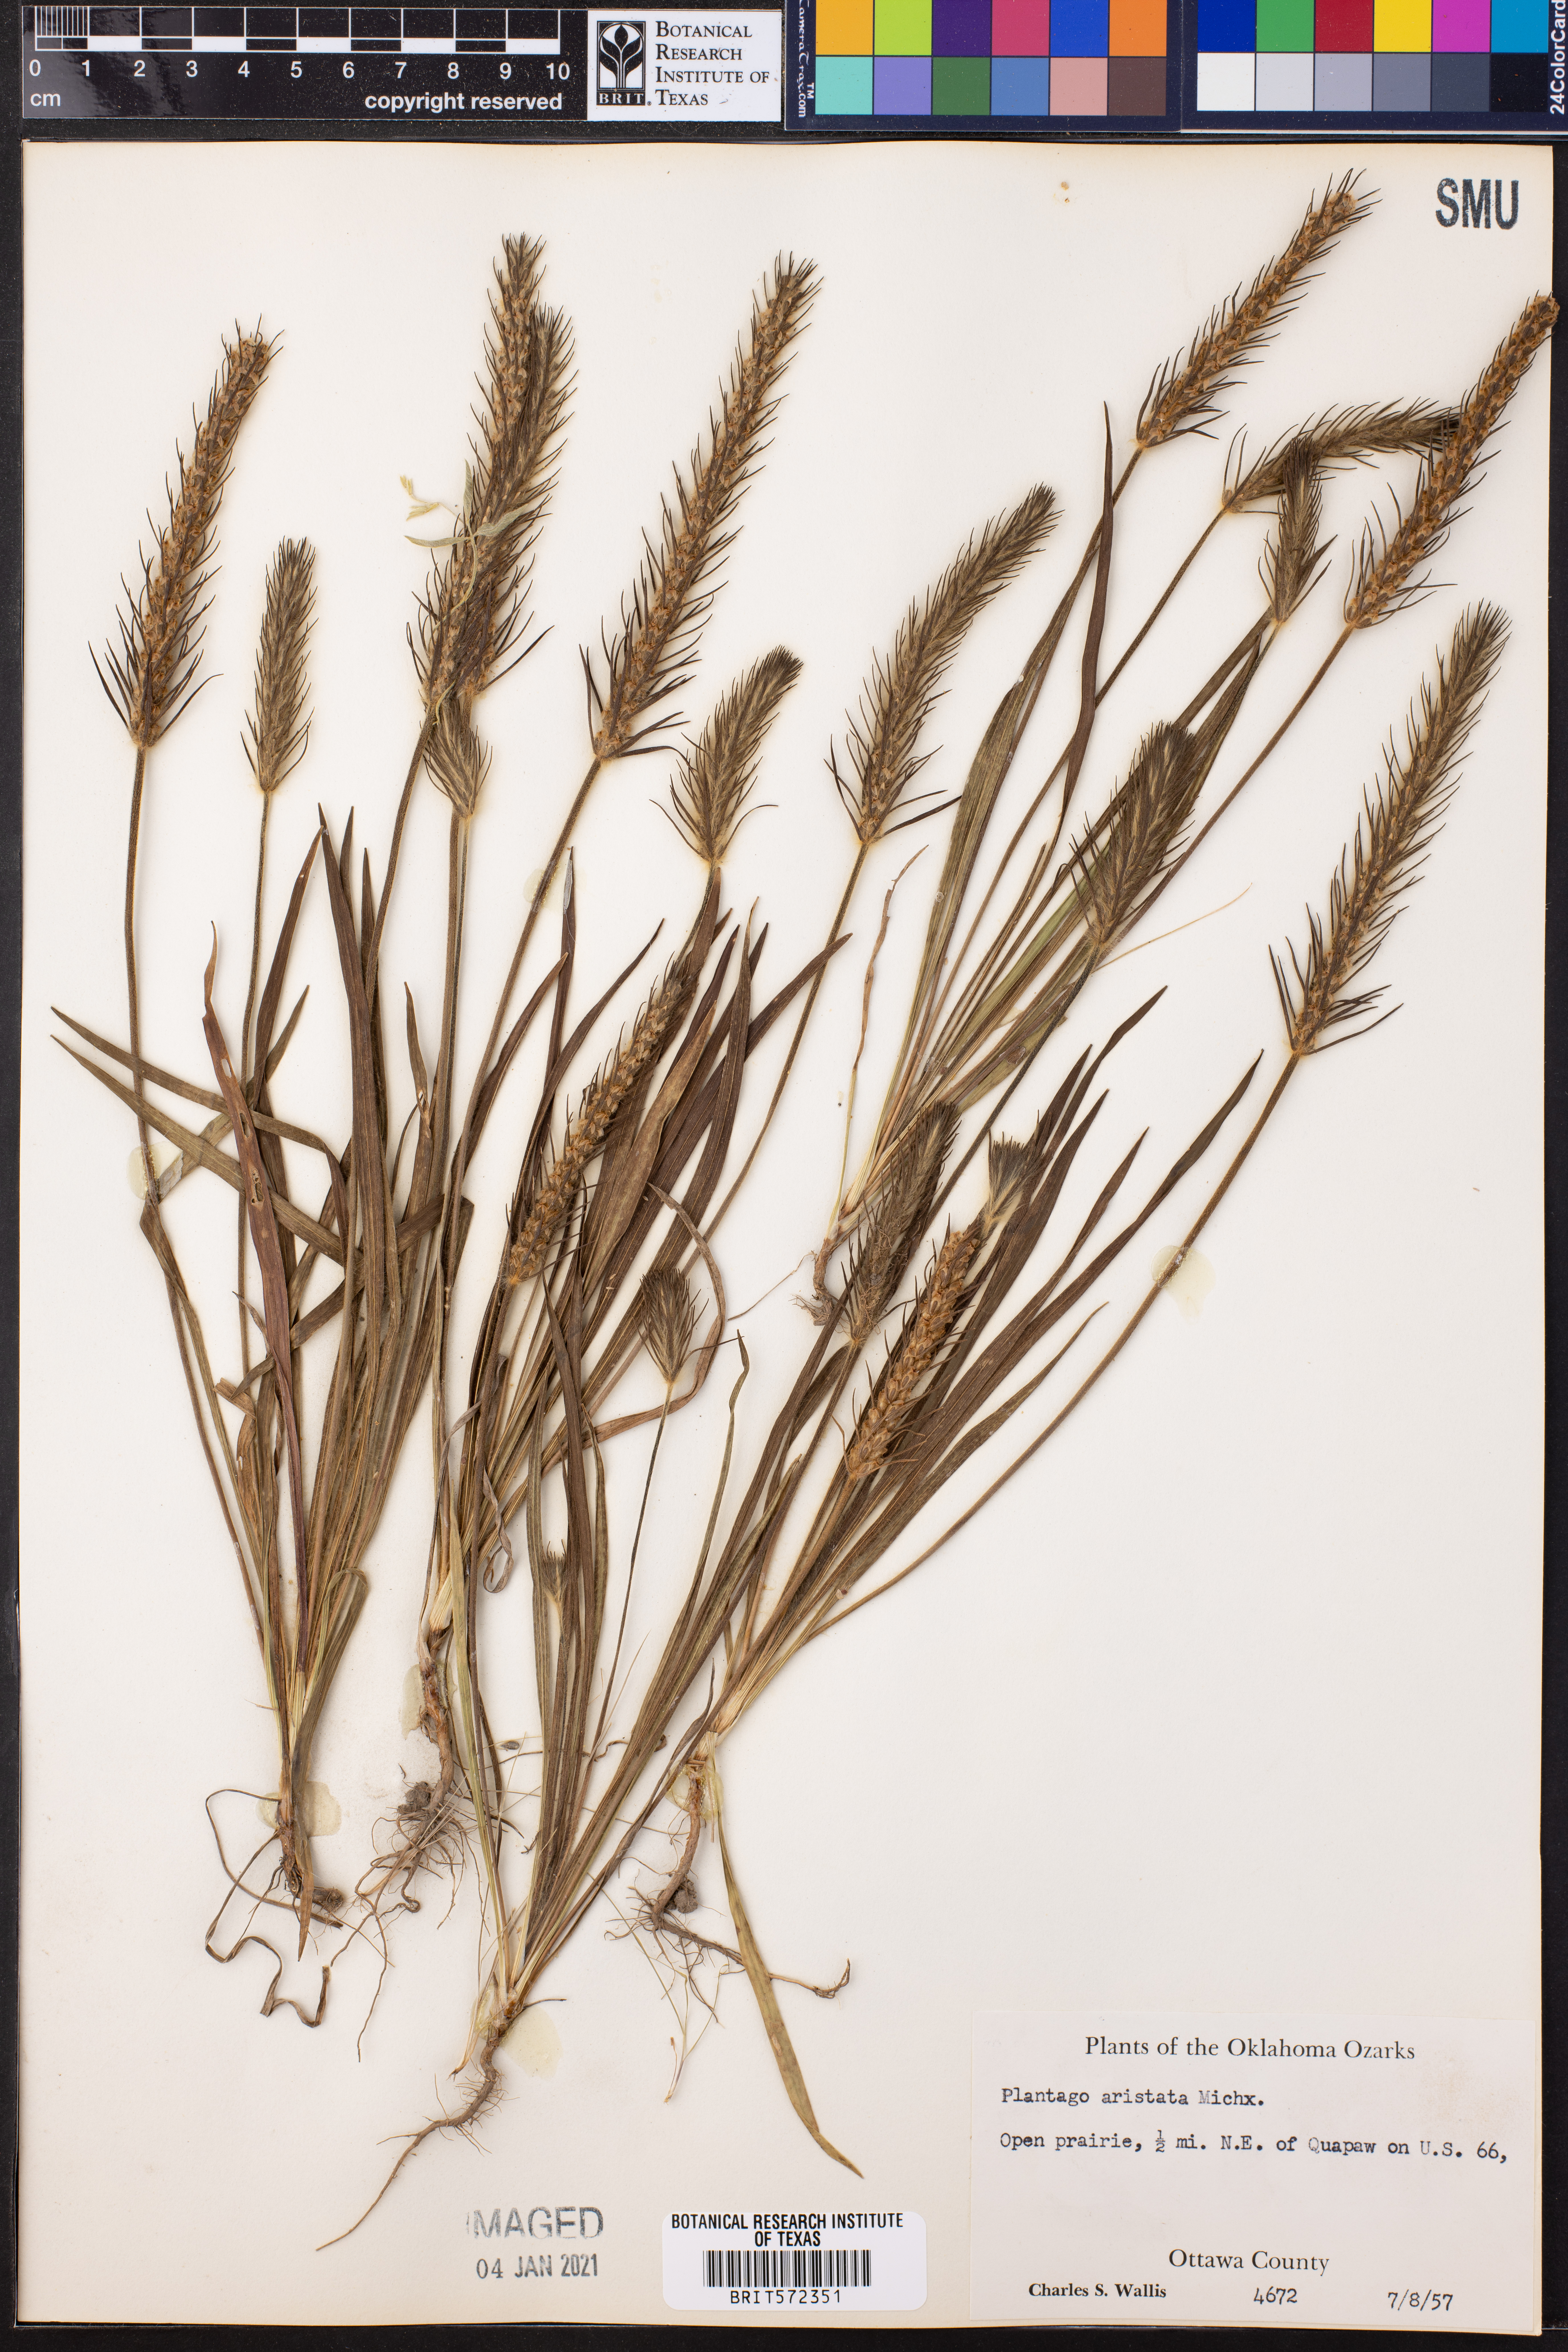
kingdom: Plantae
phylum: Tracheophyta
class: Magnoliopsida
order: Lamiales
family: Plantaginaceae
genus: Plantago
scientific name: Plantago aristata
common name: Bracted plantain
